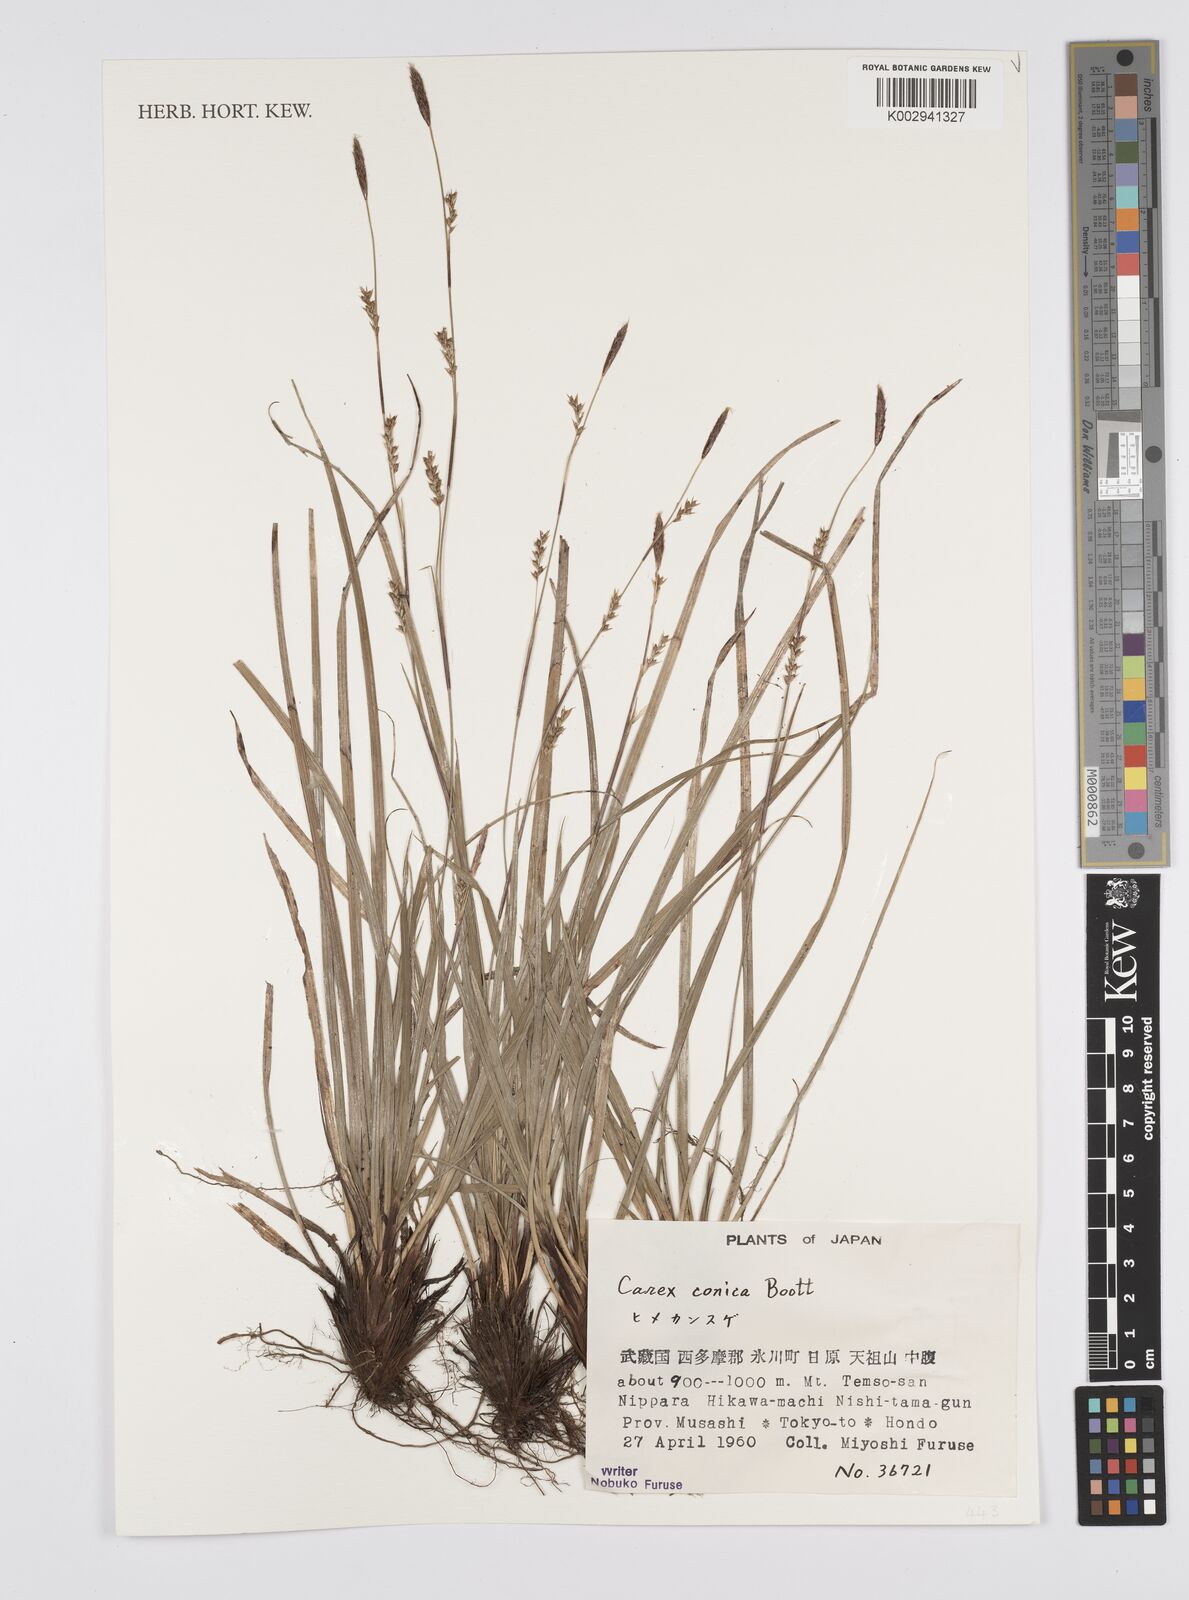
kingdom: Plantae
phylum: Tracheophyta
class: Liliopsida
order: Poales
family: Cyperaceae
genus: Carex
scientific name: Carex conica
